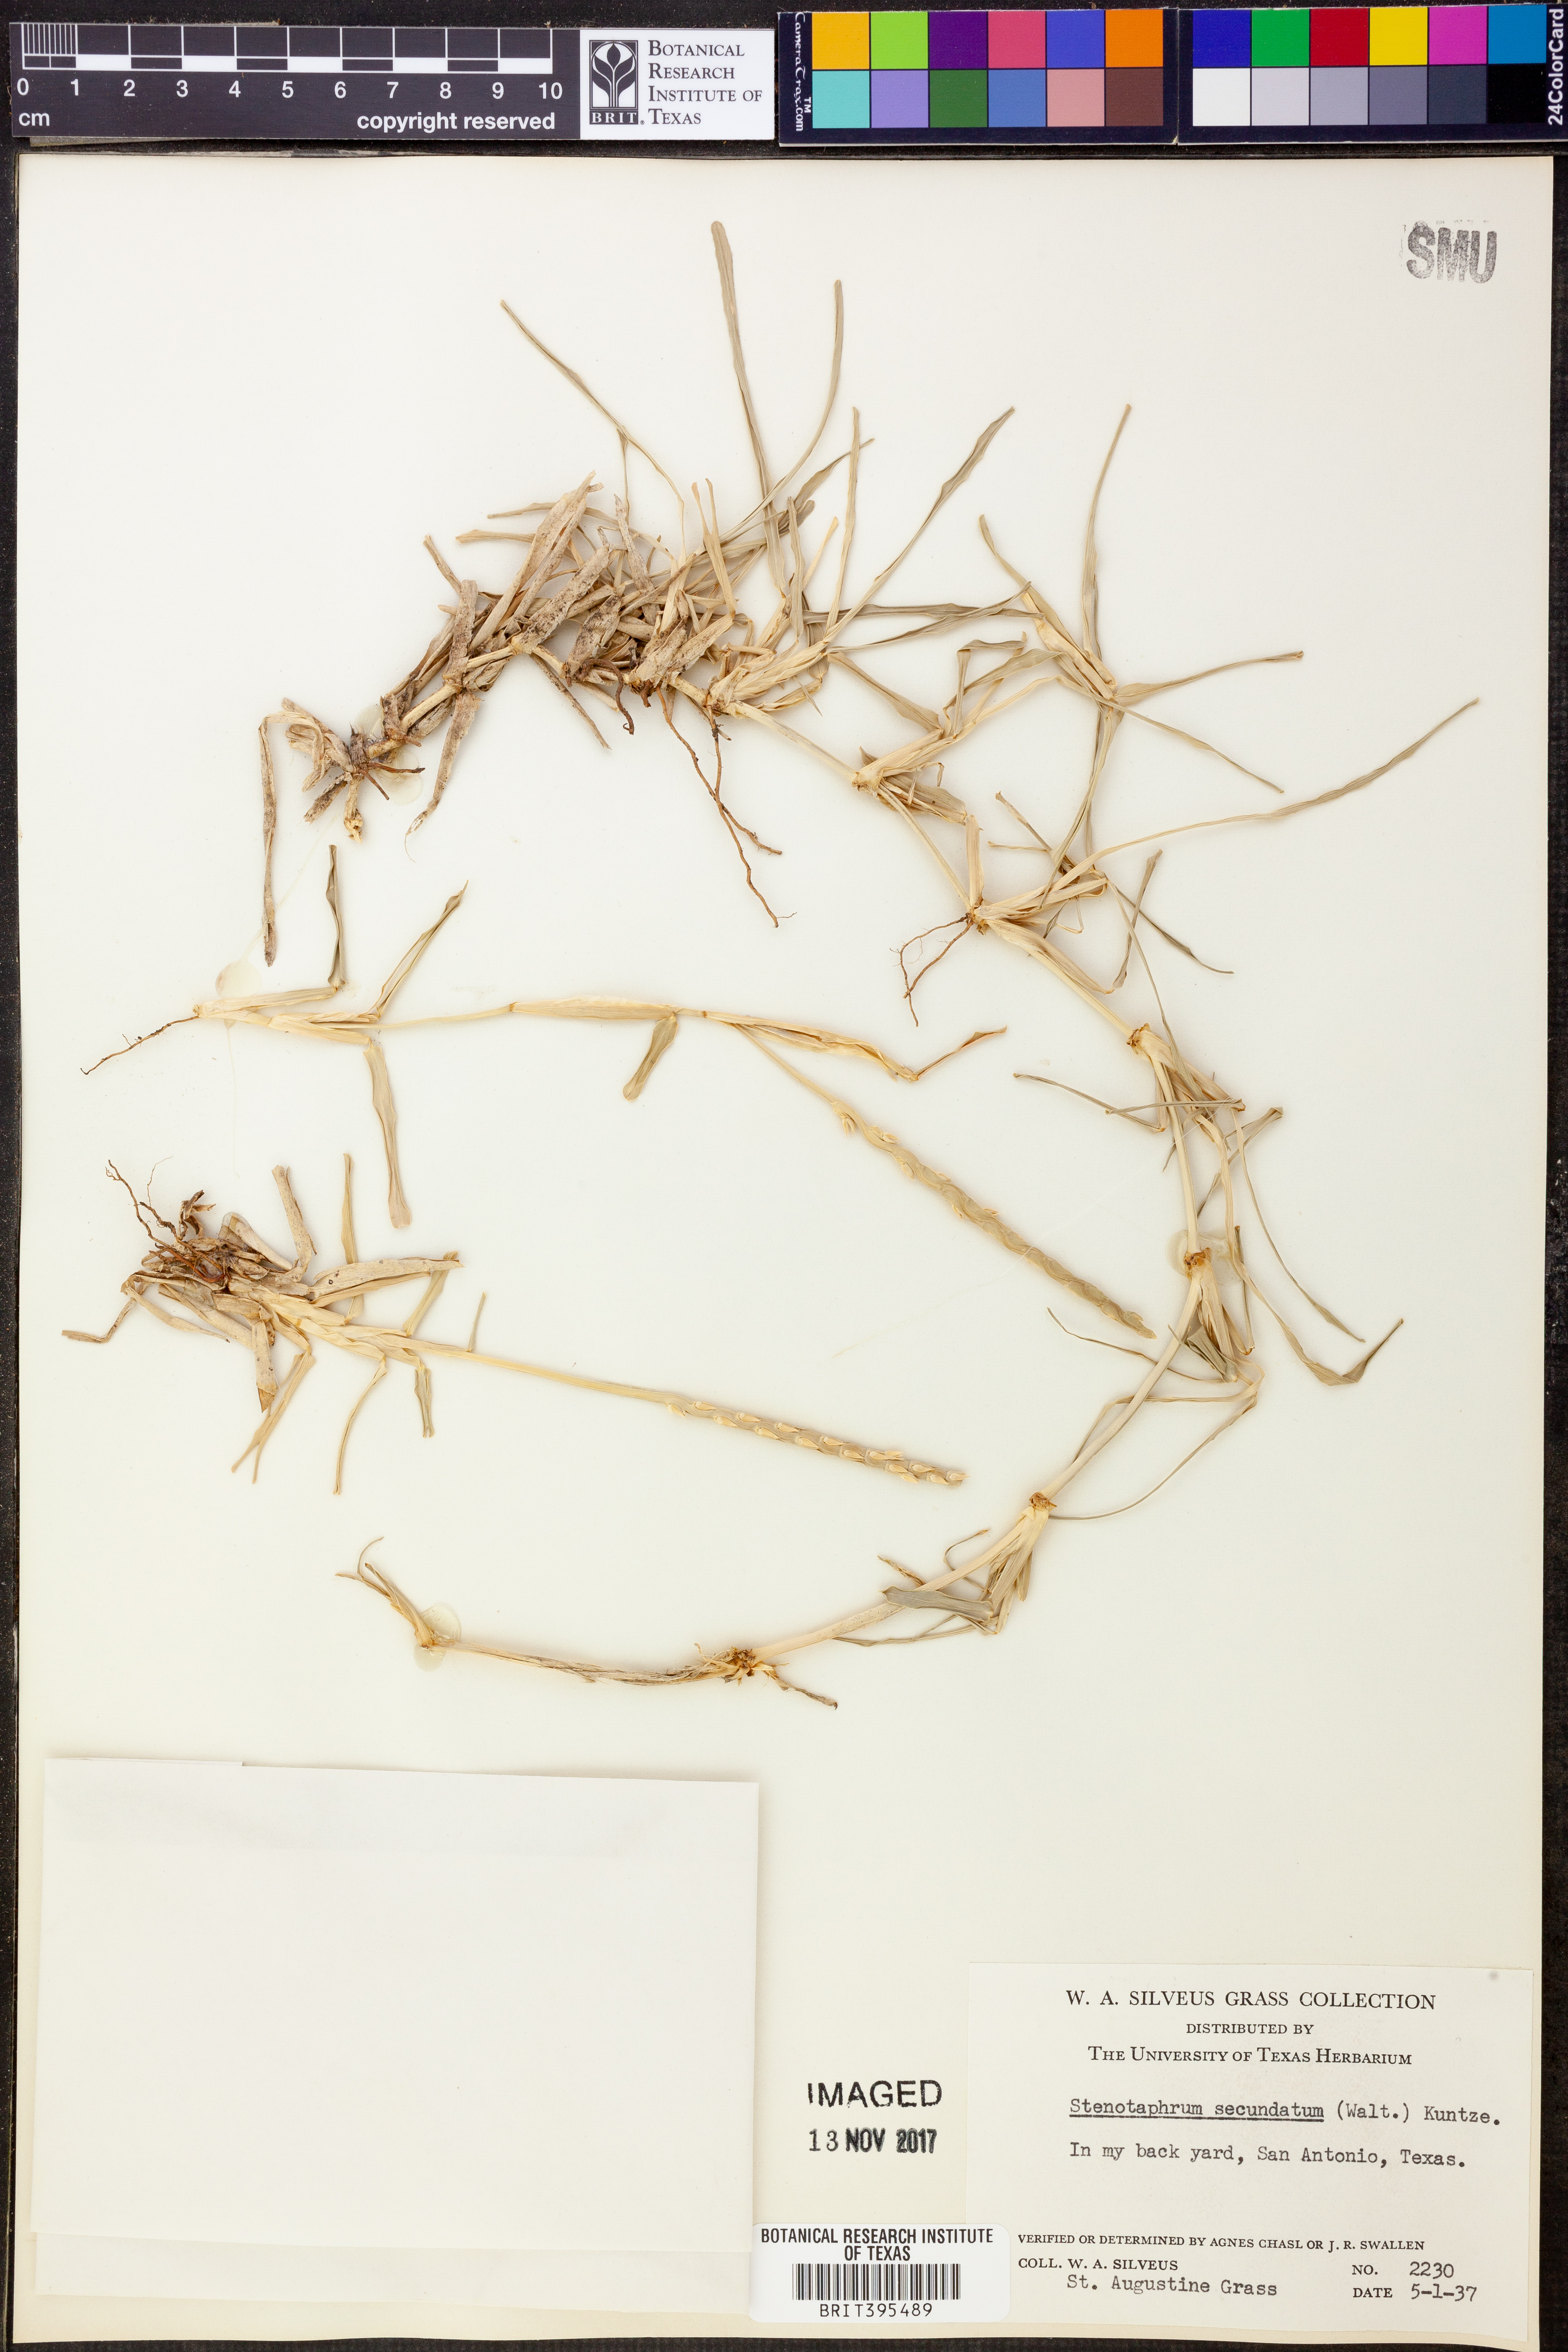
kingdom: Plantae
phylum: Tracheophyta
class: Liliopsida
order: Poales
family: Poaceae
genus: Stenotaphrum
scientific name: Stenotaphrum secundatum
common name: St. augustine grass
